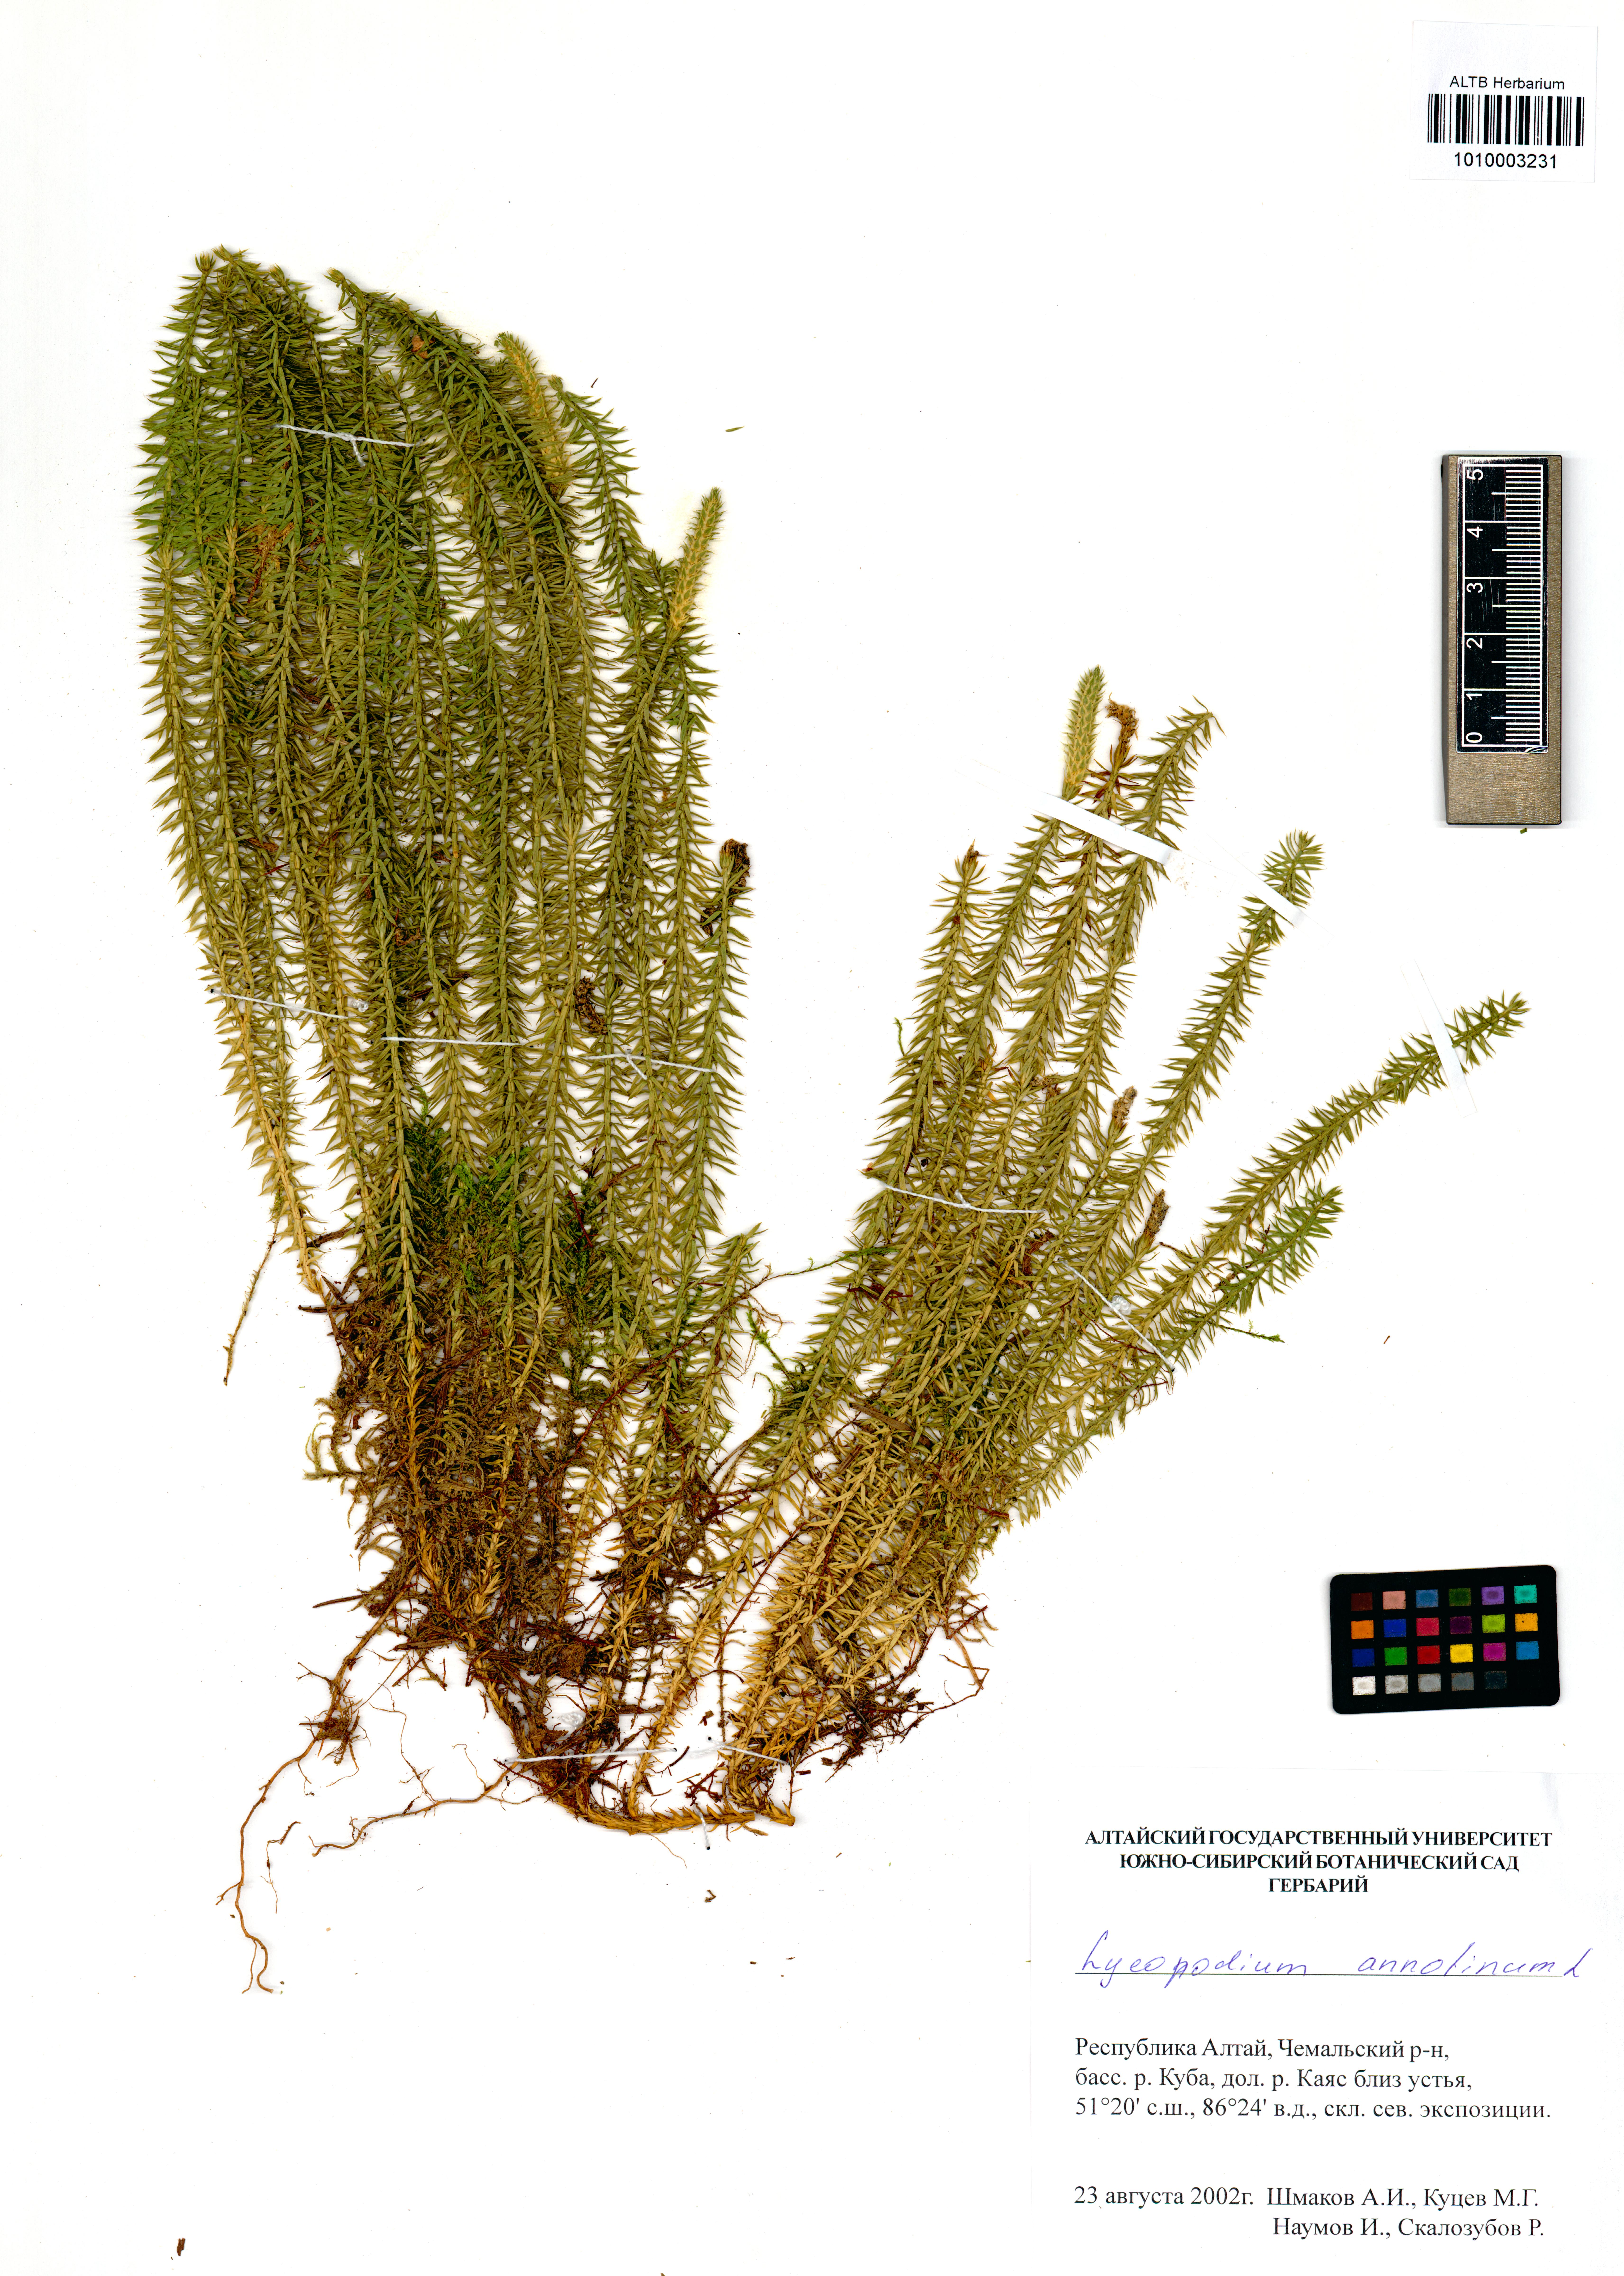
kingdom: Plantae
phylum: Tracheophyta
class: Polypodiopsida
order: Polypodiales
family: Dryopteridaceae
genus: Dryopteris
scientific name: Dryopteris filix-mas
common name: Male fern
